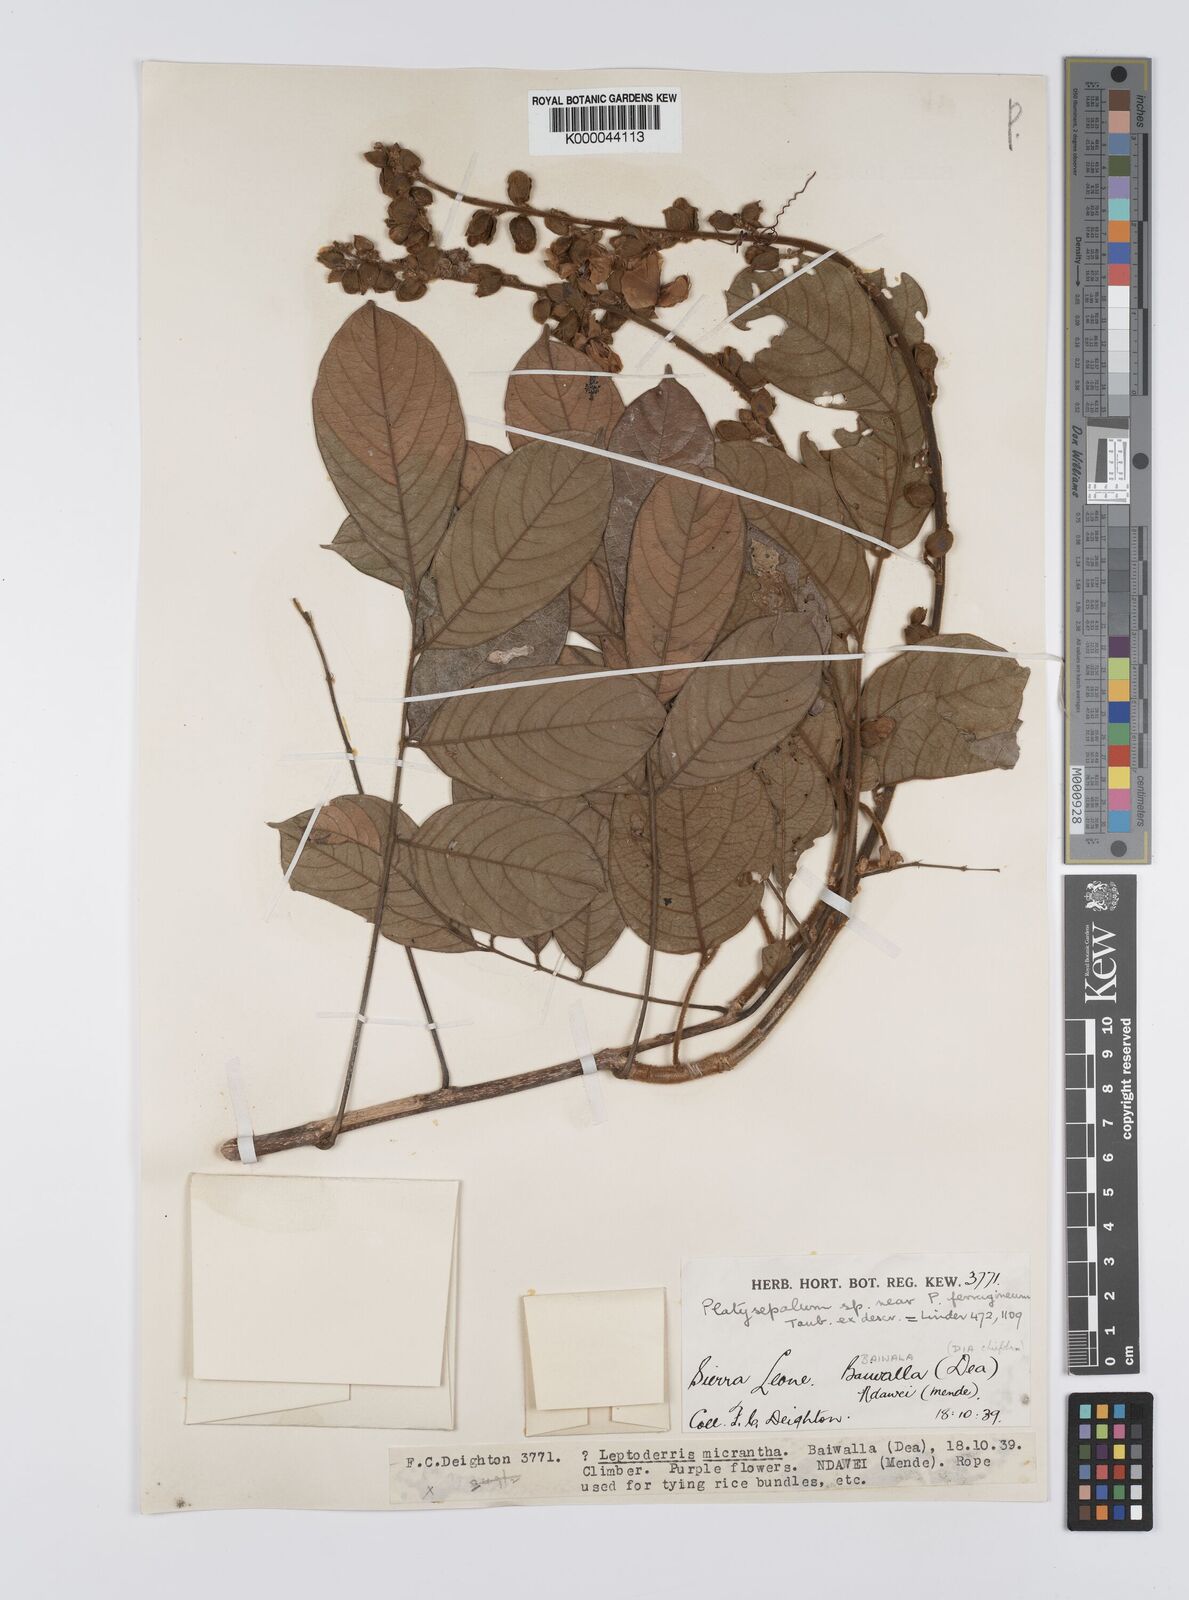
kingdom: Plantae
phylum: Tracheophyta
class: Magnoliopsida
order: Fabales
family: Fabaceae
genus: Platysepalum
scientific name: Platysepalum hirsutum
